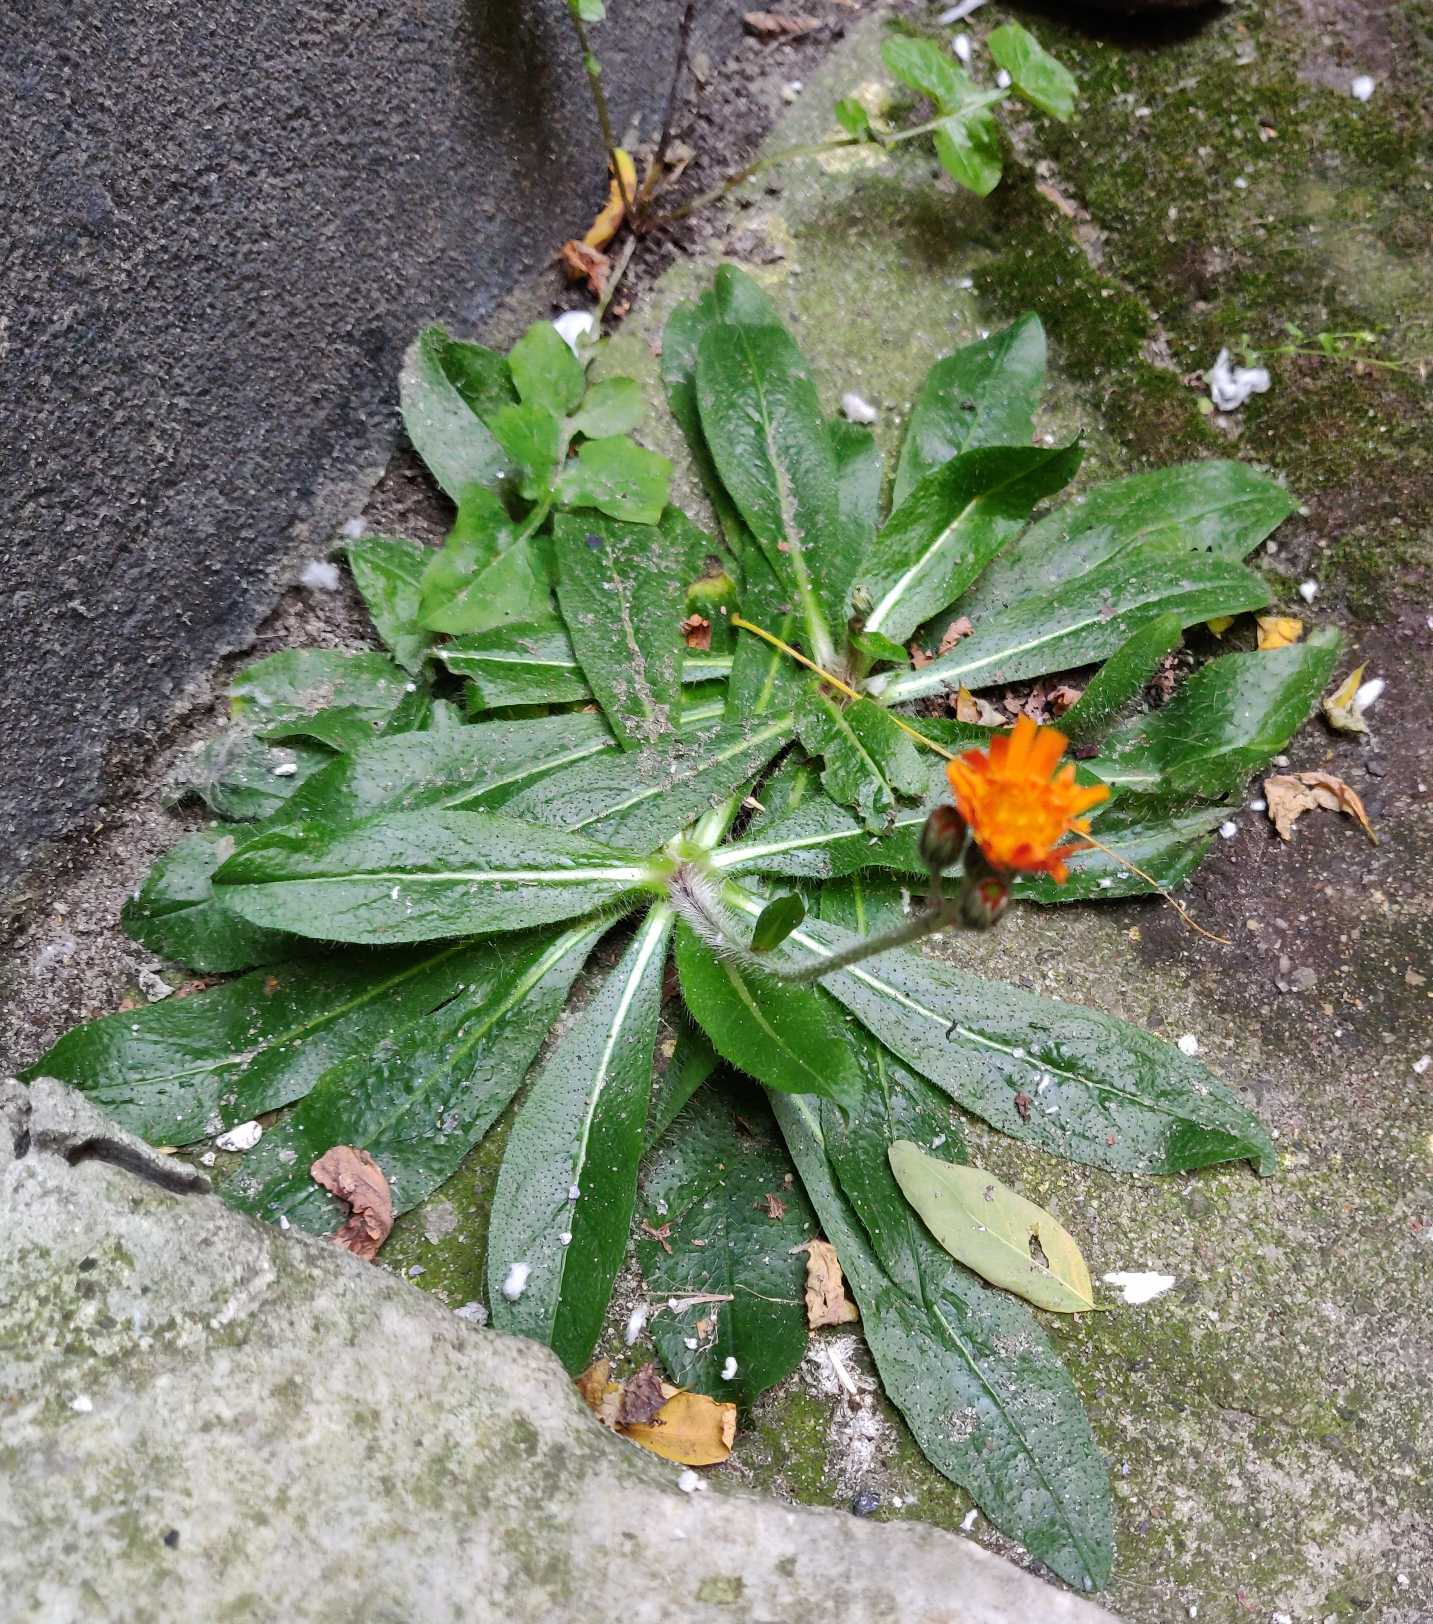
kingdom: Plantae
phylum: Tracheophyta
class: Magnoliopsida
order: Asterales
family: Asteraceae
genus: Pilosella
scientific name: Pilosella aurantiaca
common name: Pomerans-høgeurt
